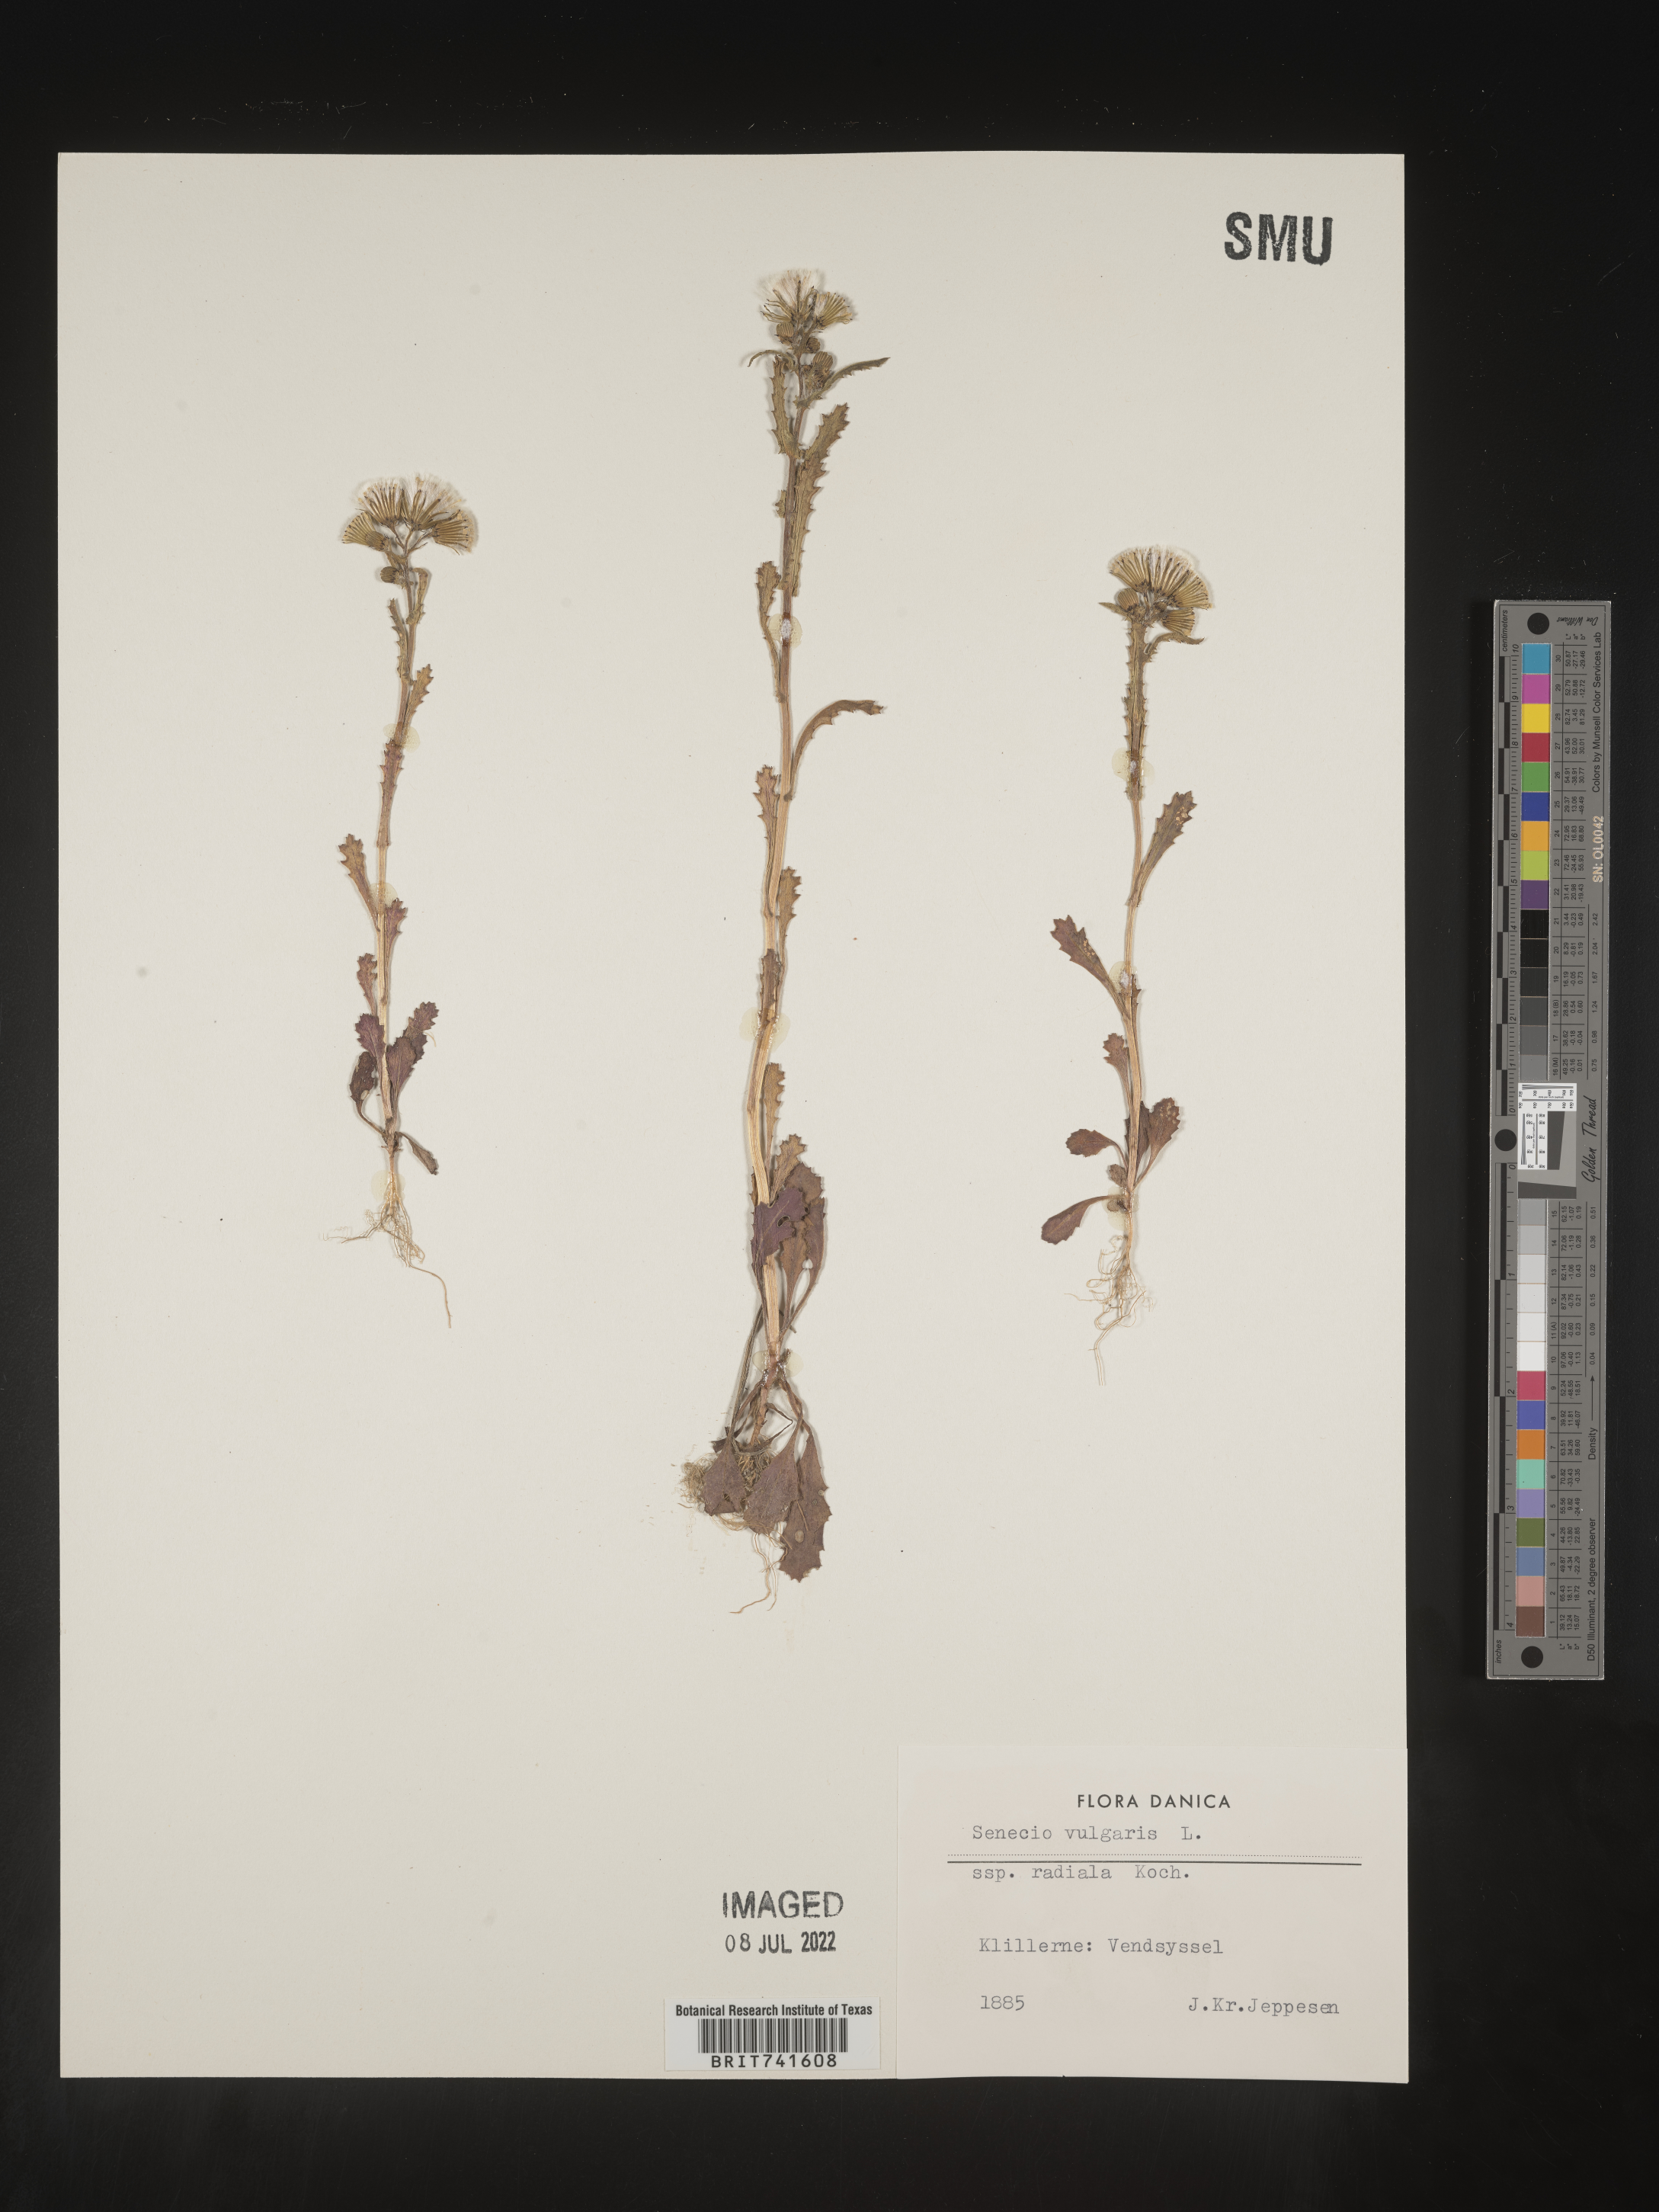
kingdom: Plantae
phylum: Tracheophyta
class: Magnoliopsida
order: Asterales
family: Asteraceae
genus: Senecio
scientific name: Senecio
